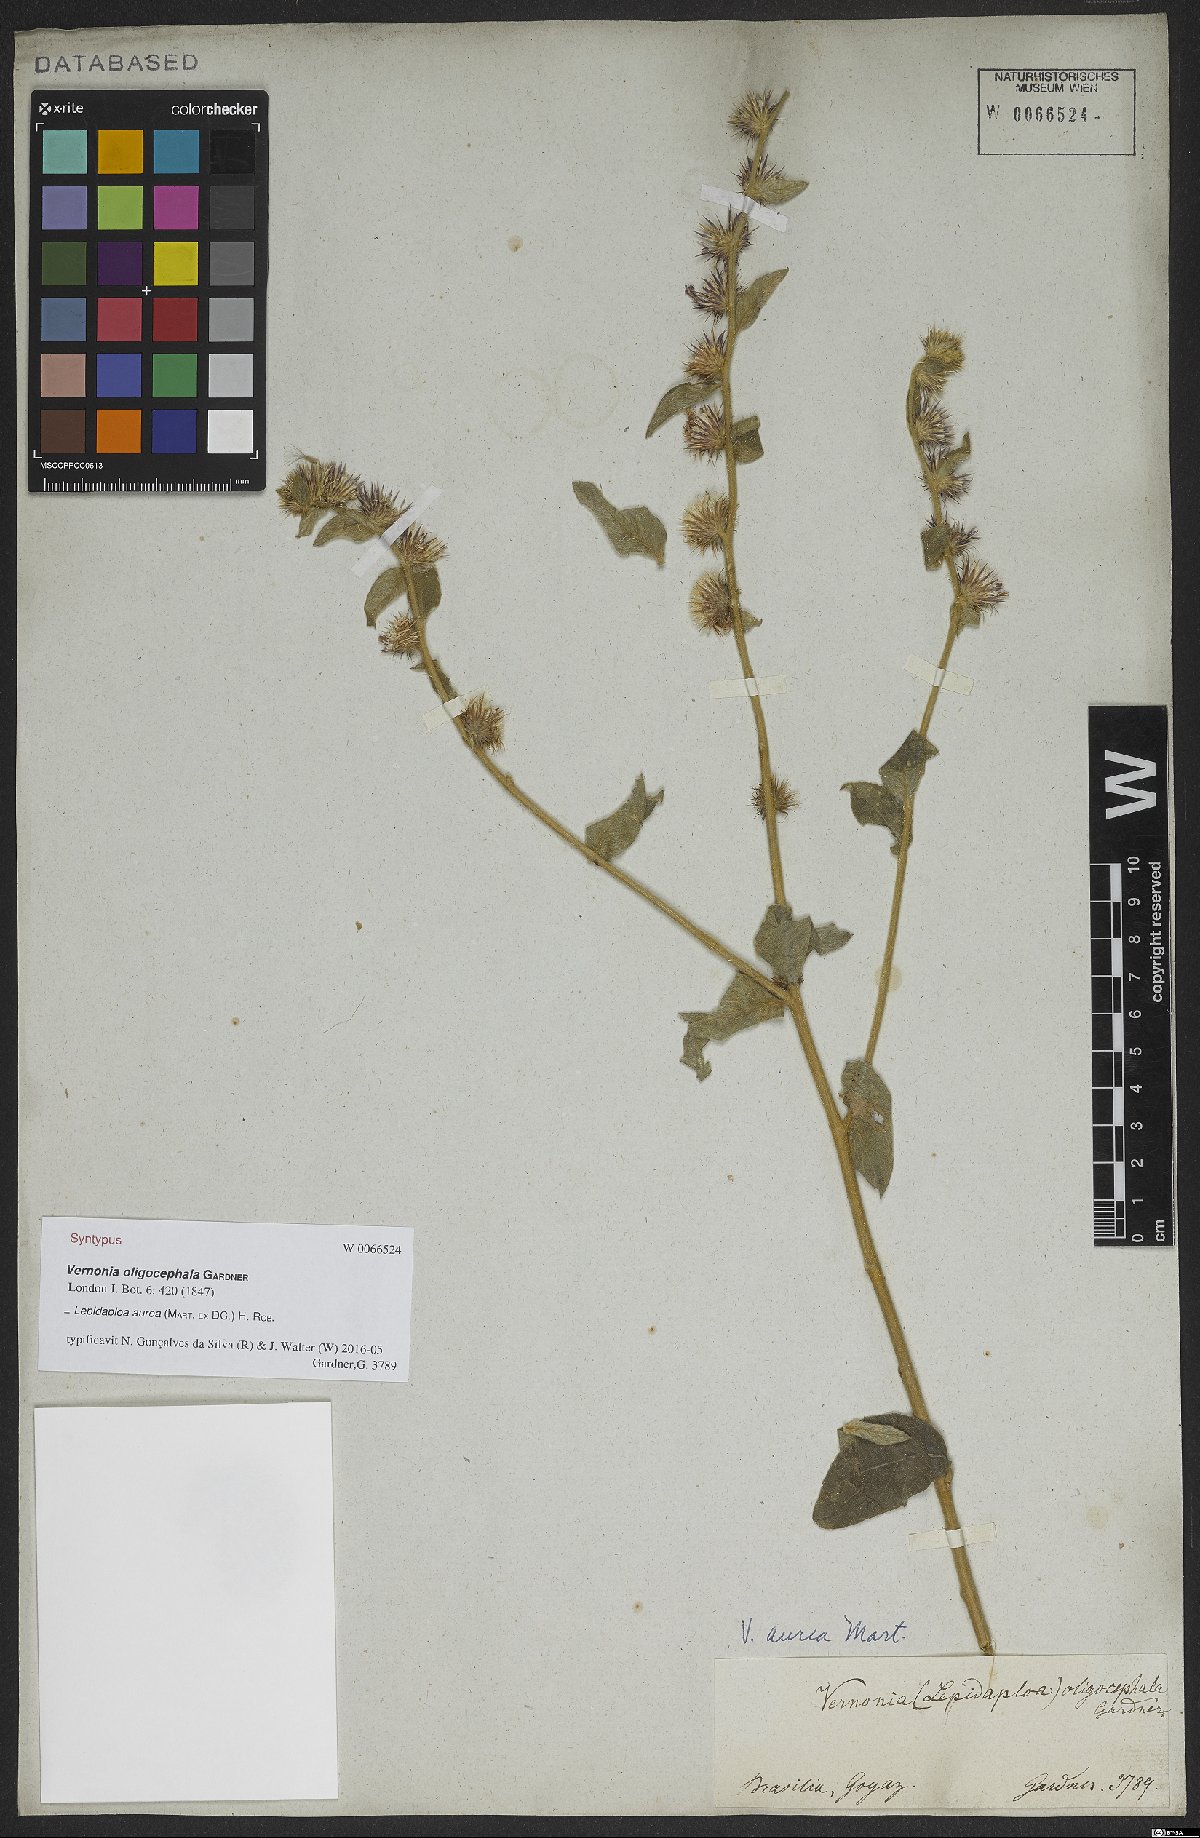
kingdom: Plantae
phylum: Tracheophyta
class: Magnoliopsida
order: Asterales
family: Asteraceae
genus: Lepidaploa
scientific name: Lepidaploa aurea
